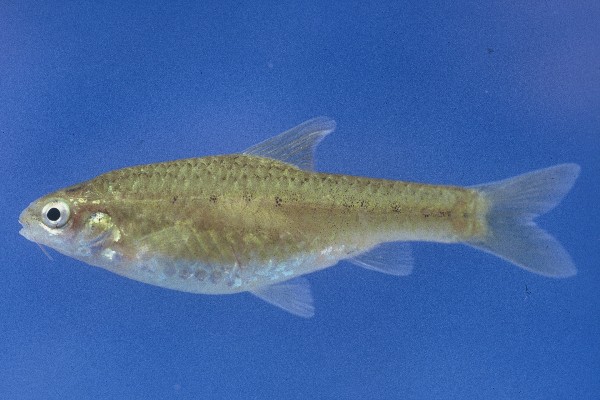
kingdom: Animalia
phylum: Chordata
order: Cypriniformes
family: Cyprinidae
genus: Enteromius
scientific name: Enteromius pallidus
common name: Goldie barb
